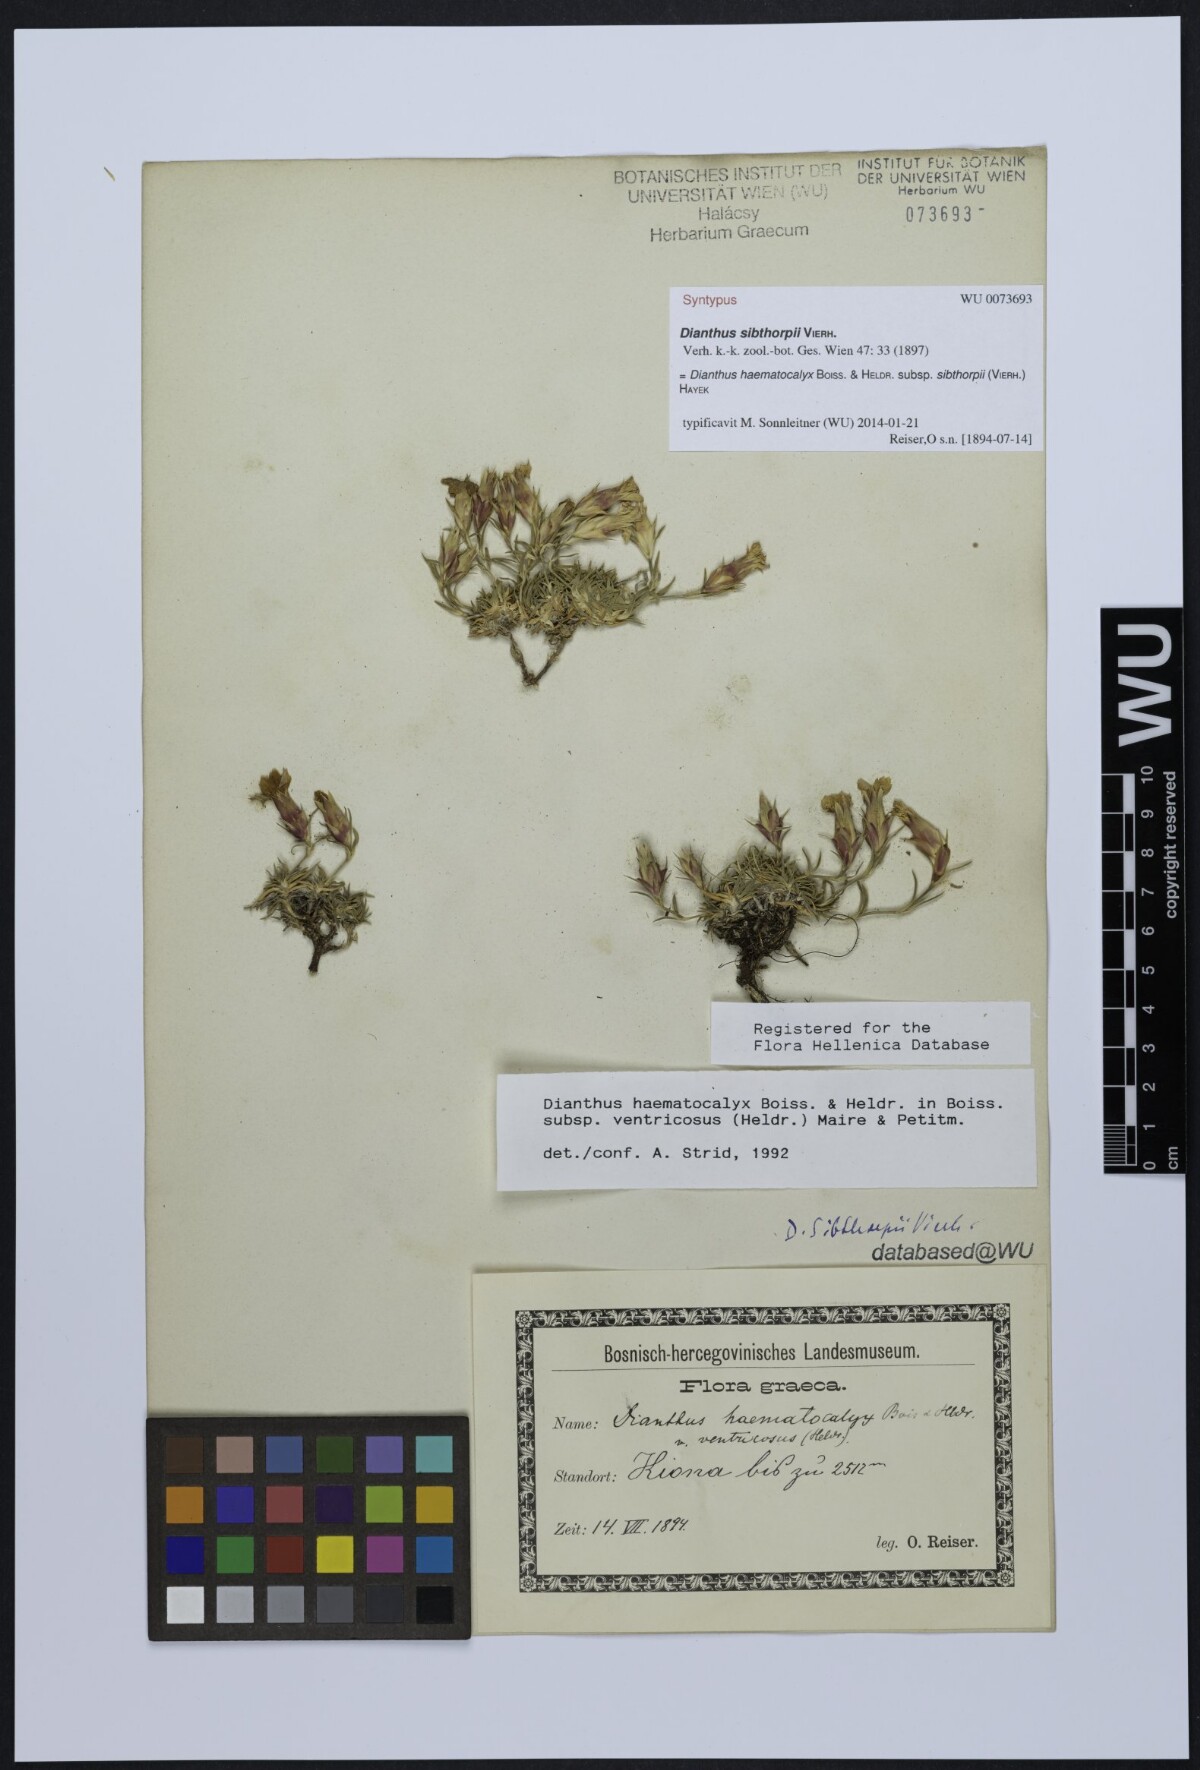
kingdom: Plantae
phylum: Tracheophyta
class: Magnoliopsida
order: Caryophyllales
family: Caryophyllaceae
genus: Dianthus
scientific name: Dianthus haematocalyx
